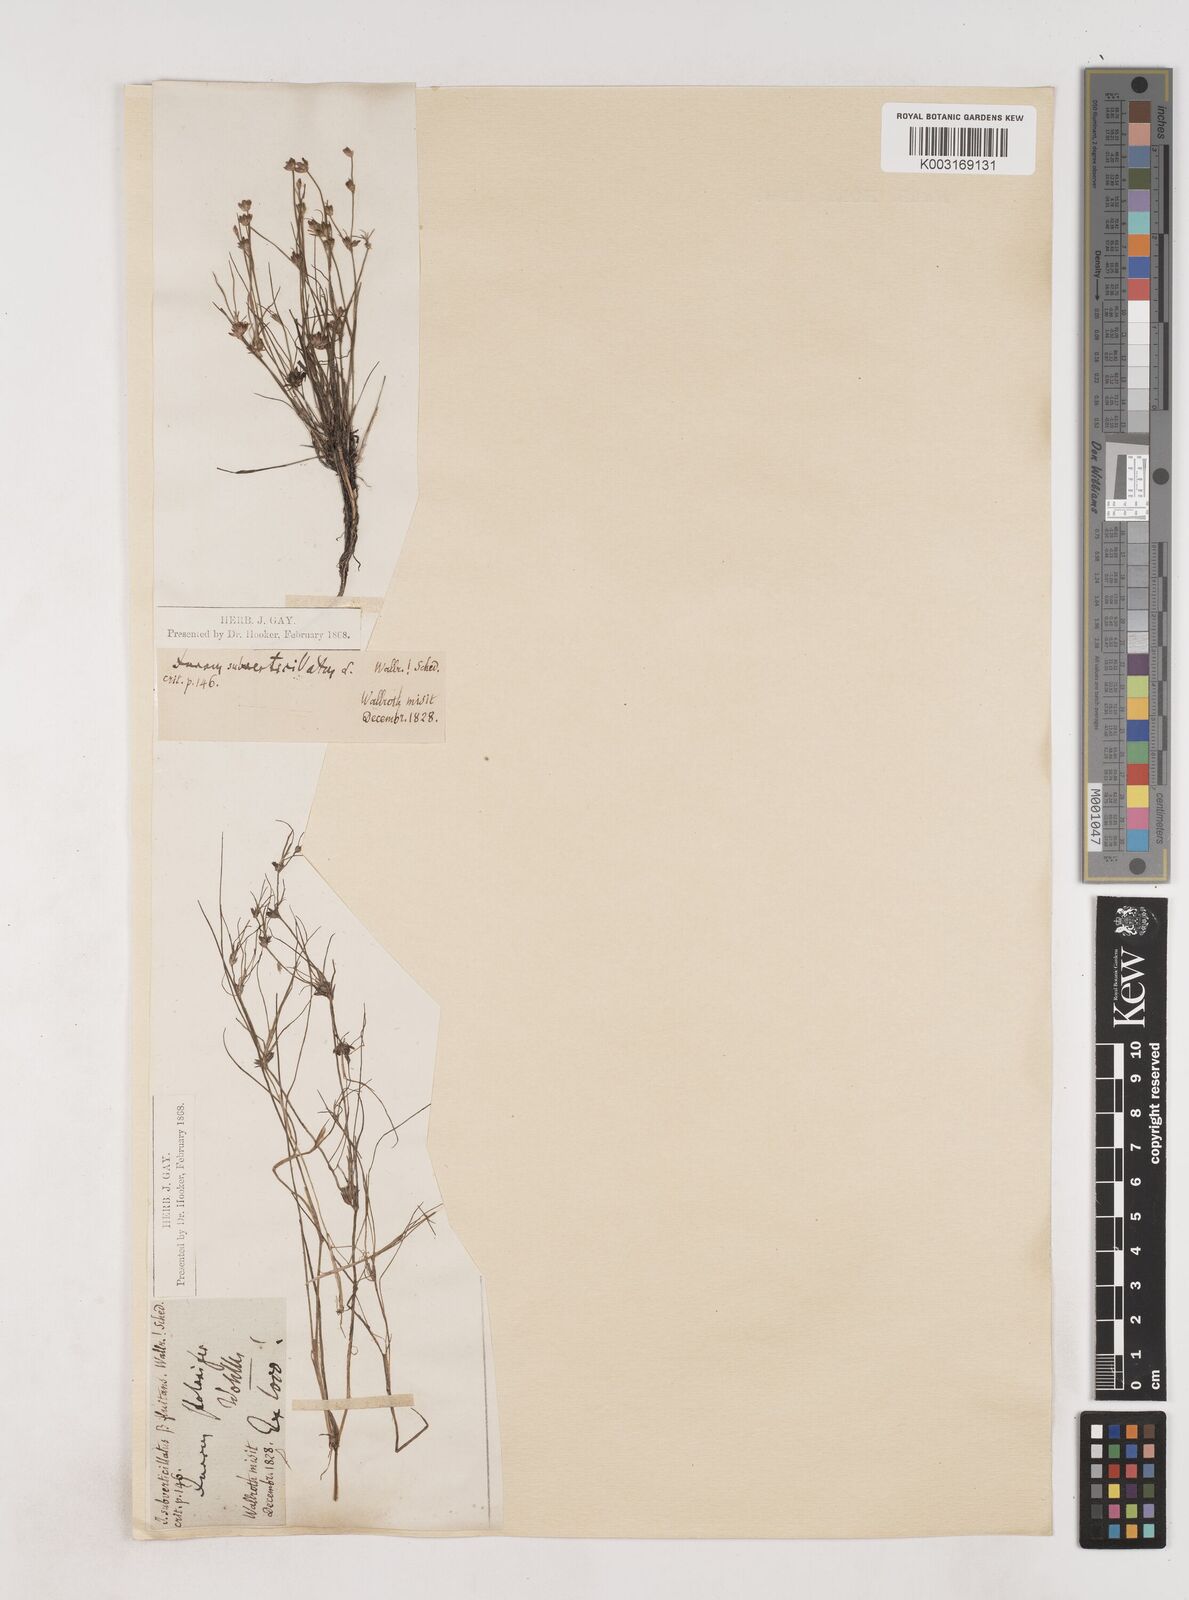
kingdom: Plantae
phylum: Tracheophyta
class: Liliopsida
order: Poales
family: Juncaceae
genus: Juncus
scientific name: Juncus bulbosus
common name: Bulbous rush
